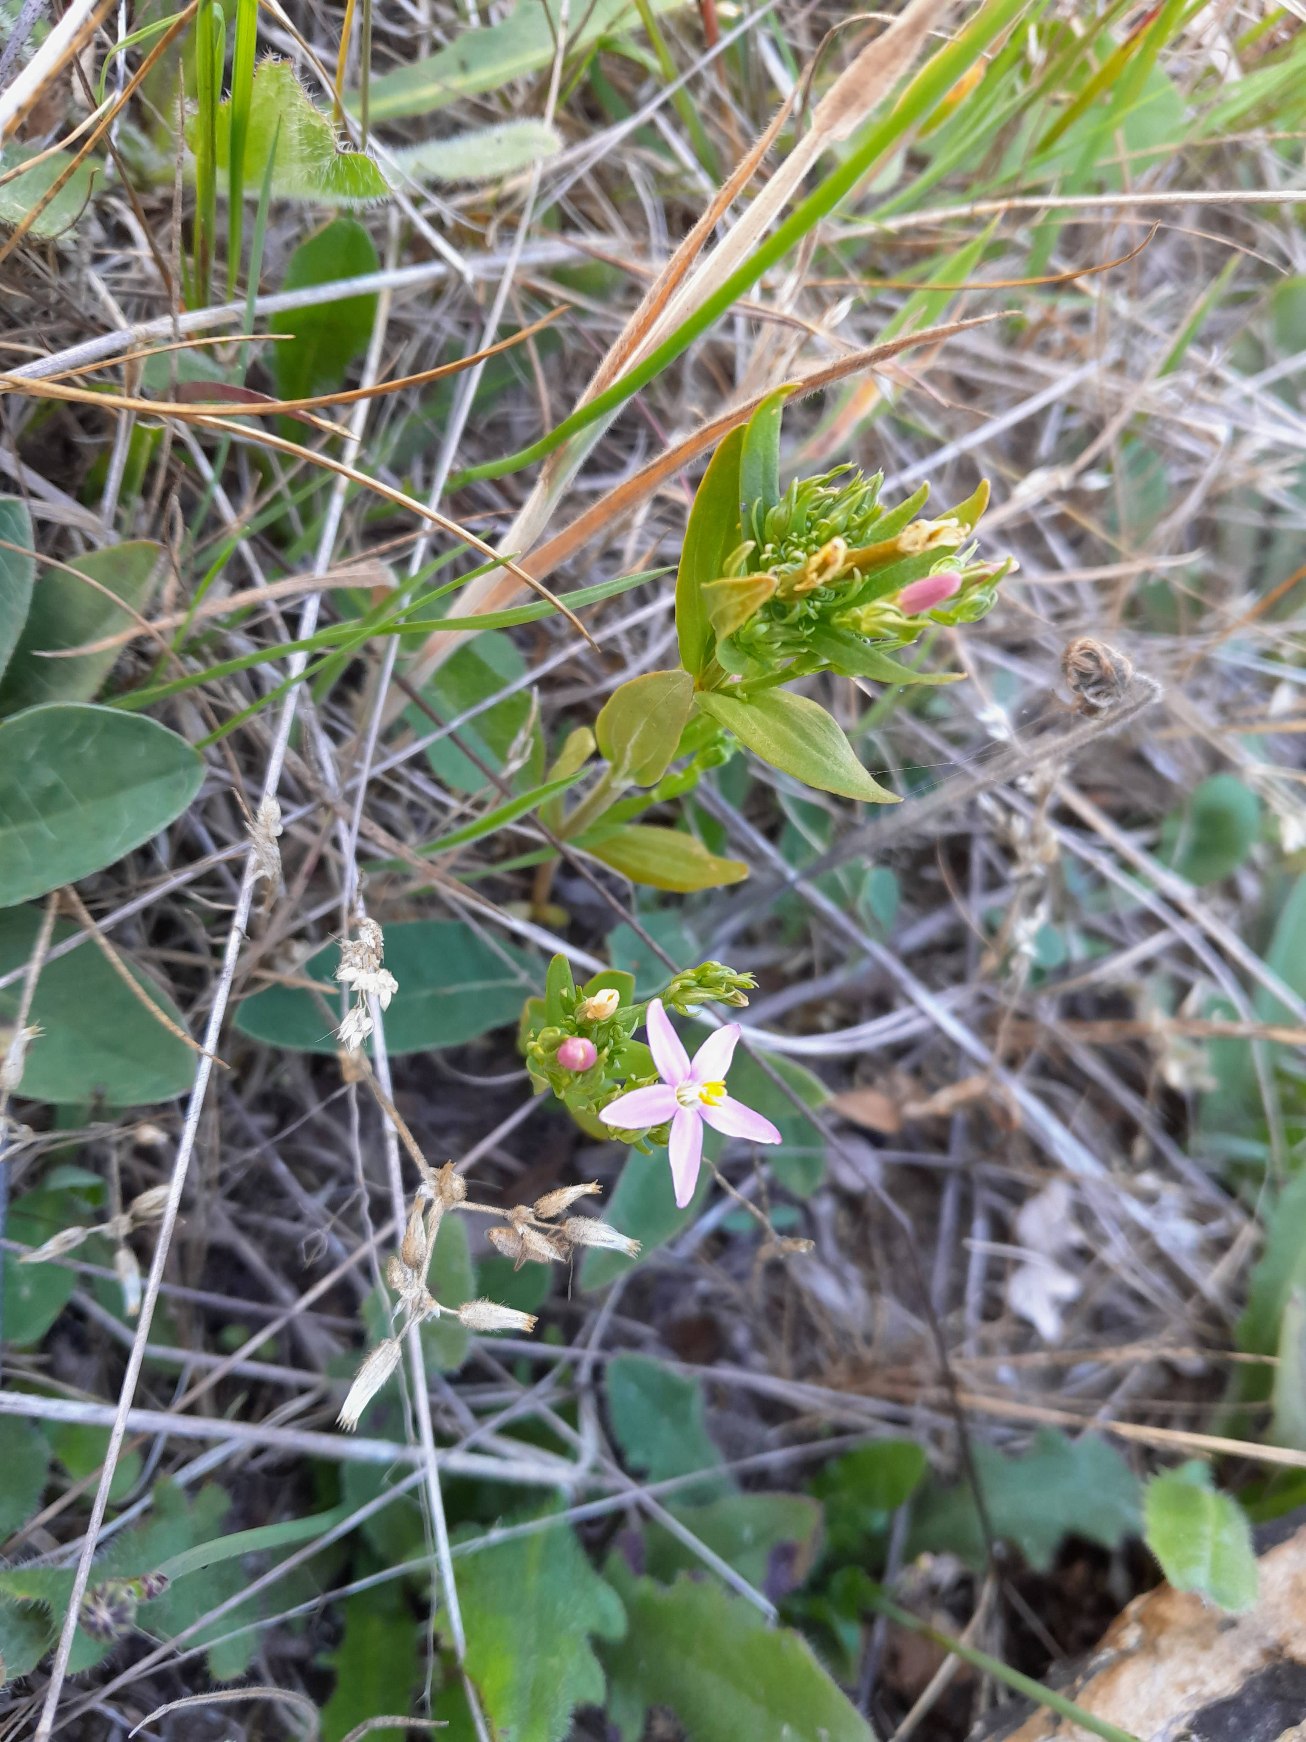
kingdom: Plantae
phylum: Tracheophyta
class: Magnoliopsida
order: Gentianales
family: Gentianaceae
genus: Centaurium
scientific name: Centaurium erythraea
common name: Mark-tusindgylden
